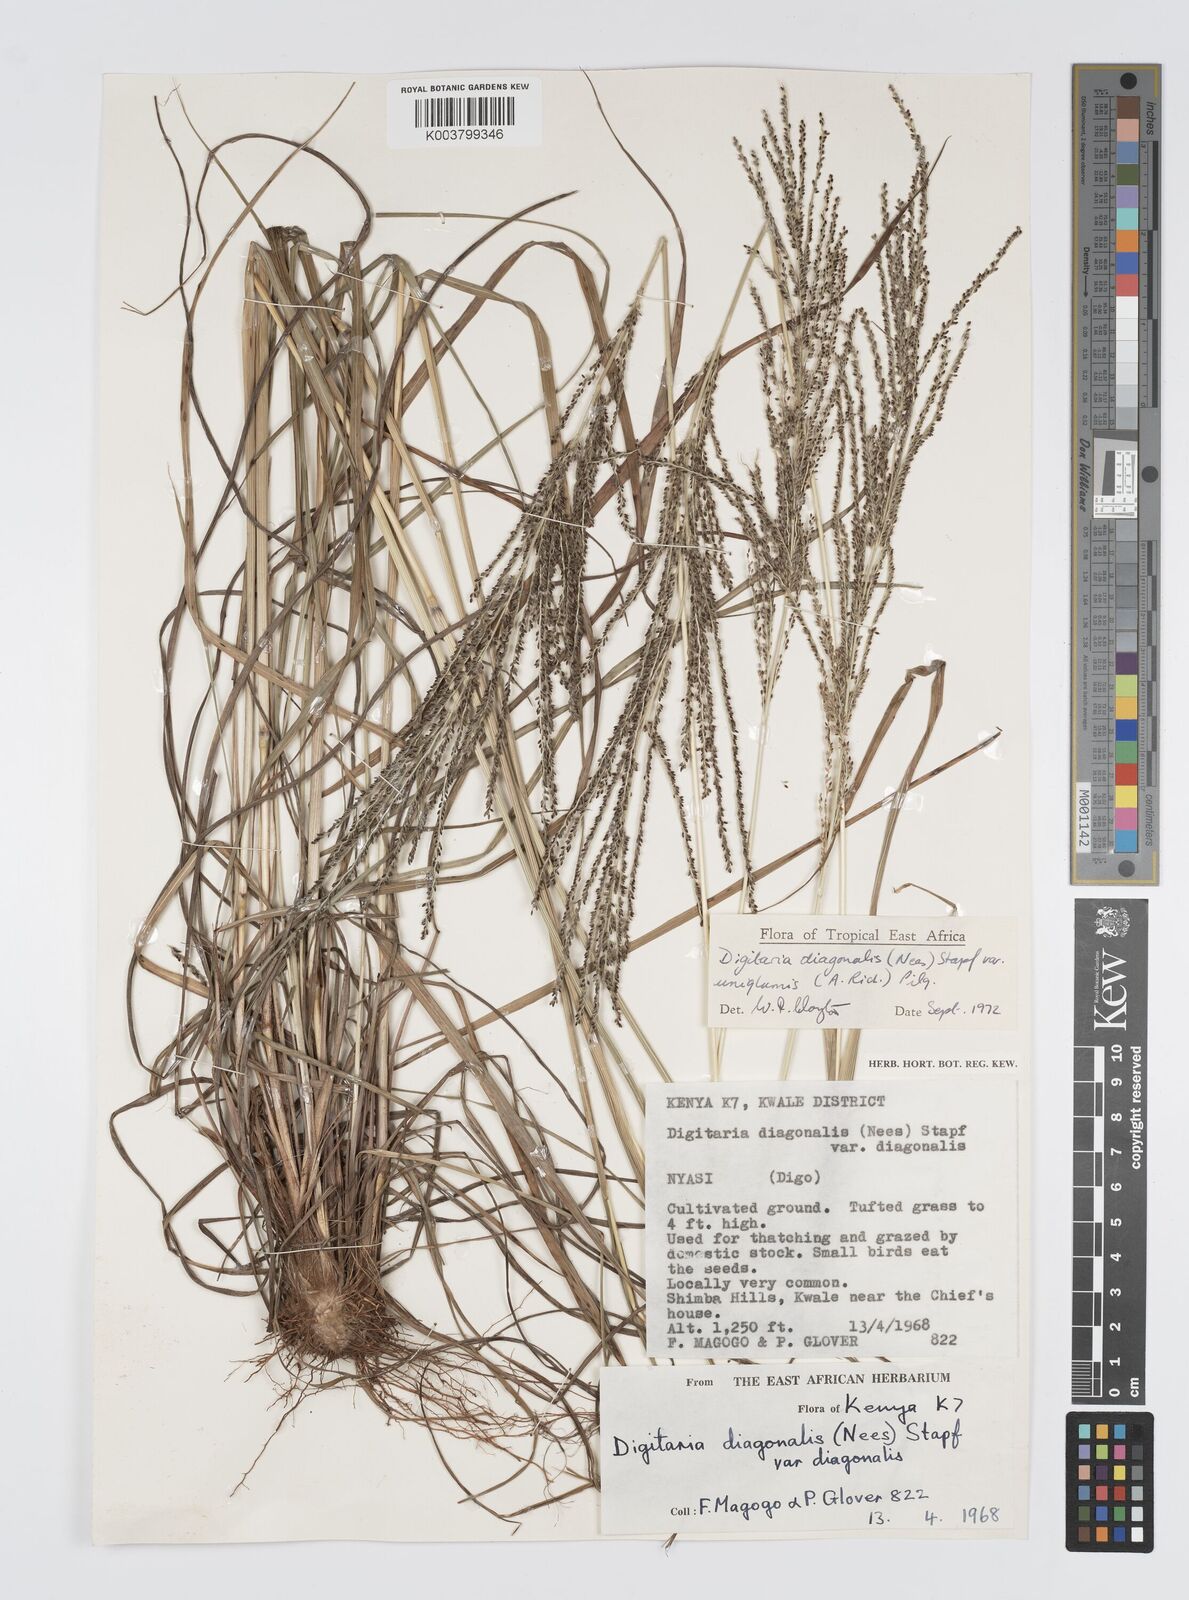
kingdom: Plantae
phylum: Tracheophyta
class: Liliopsida
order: Poales
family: Poaceae
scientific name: Poaceae
